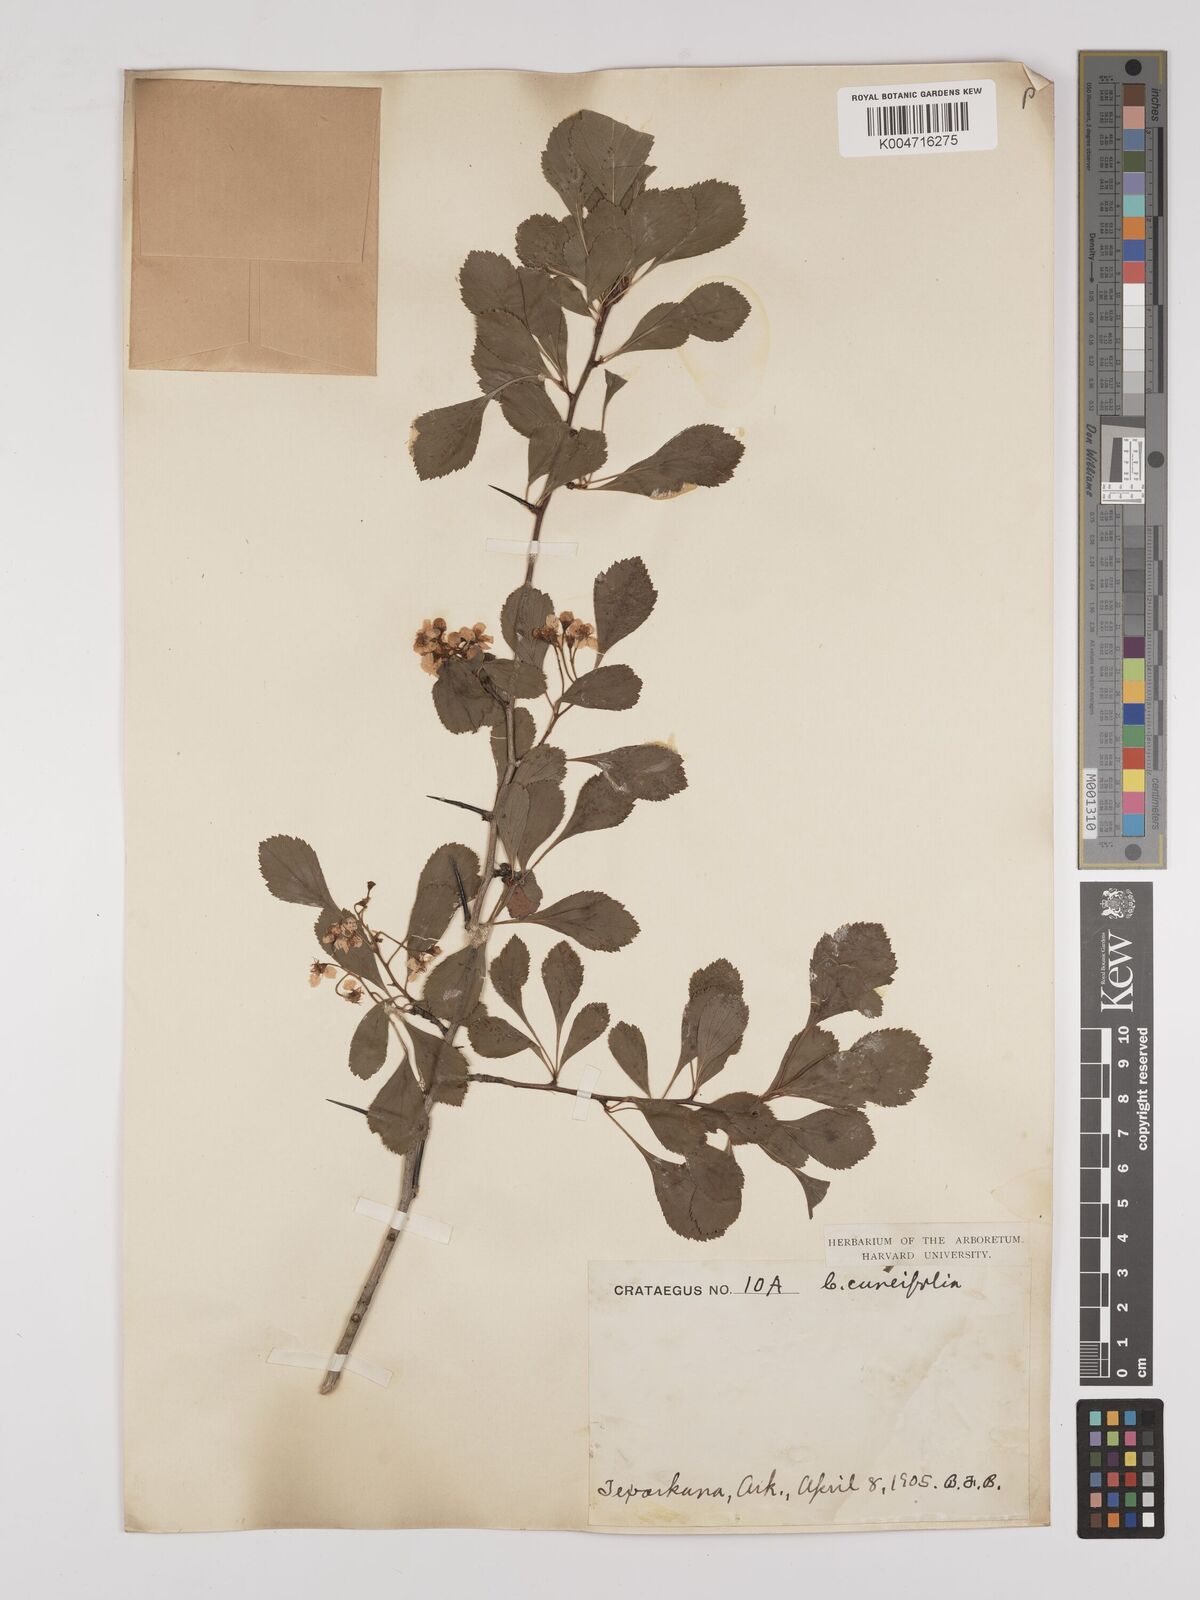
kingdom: Plantae
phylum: Tracheophyta
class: Magnoliopsida
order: Rosales
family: Rosaceae
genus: Crataegus
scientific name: Crataegus punctata
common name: Dotted hawthorn
